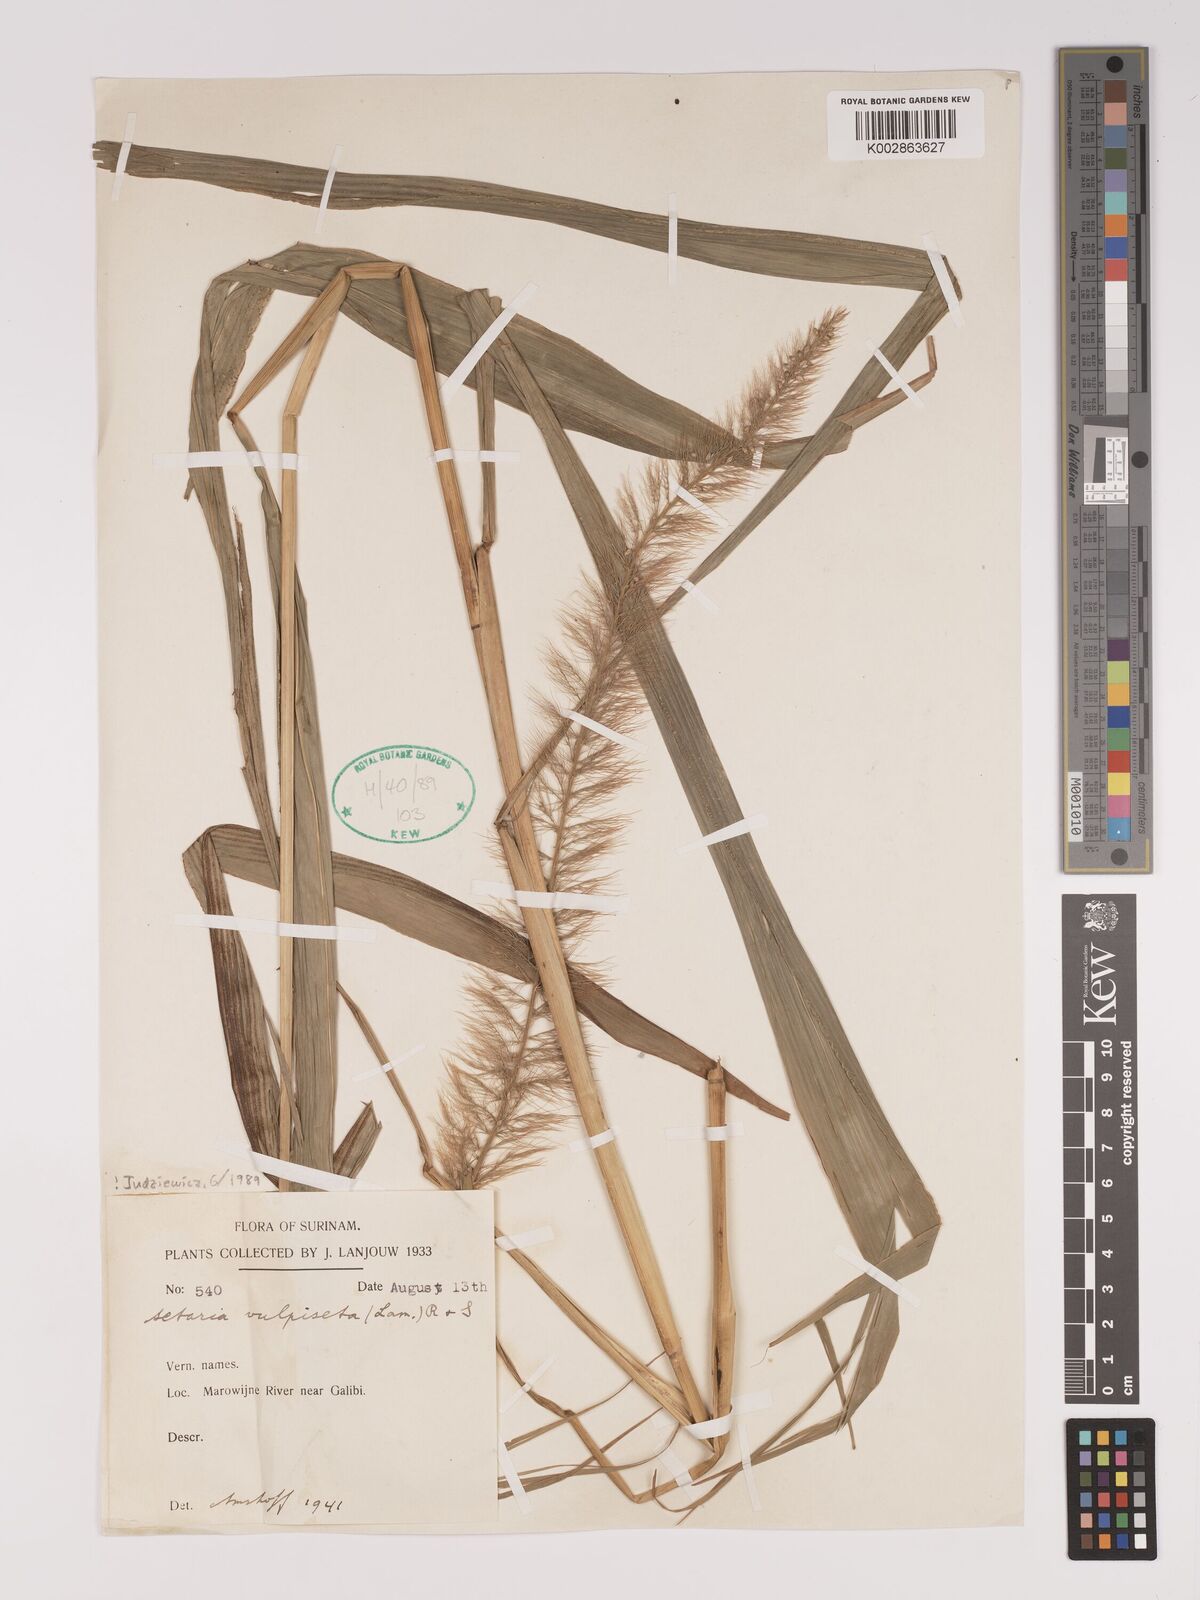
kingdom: Plantae
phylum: Tracheophyta
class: Liliopsida
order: Poales
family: Poaceae
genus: Setaria
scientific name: Setaria vulpiseta
